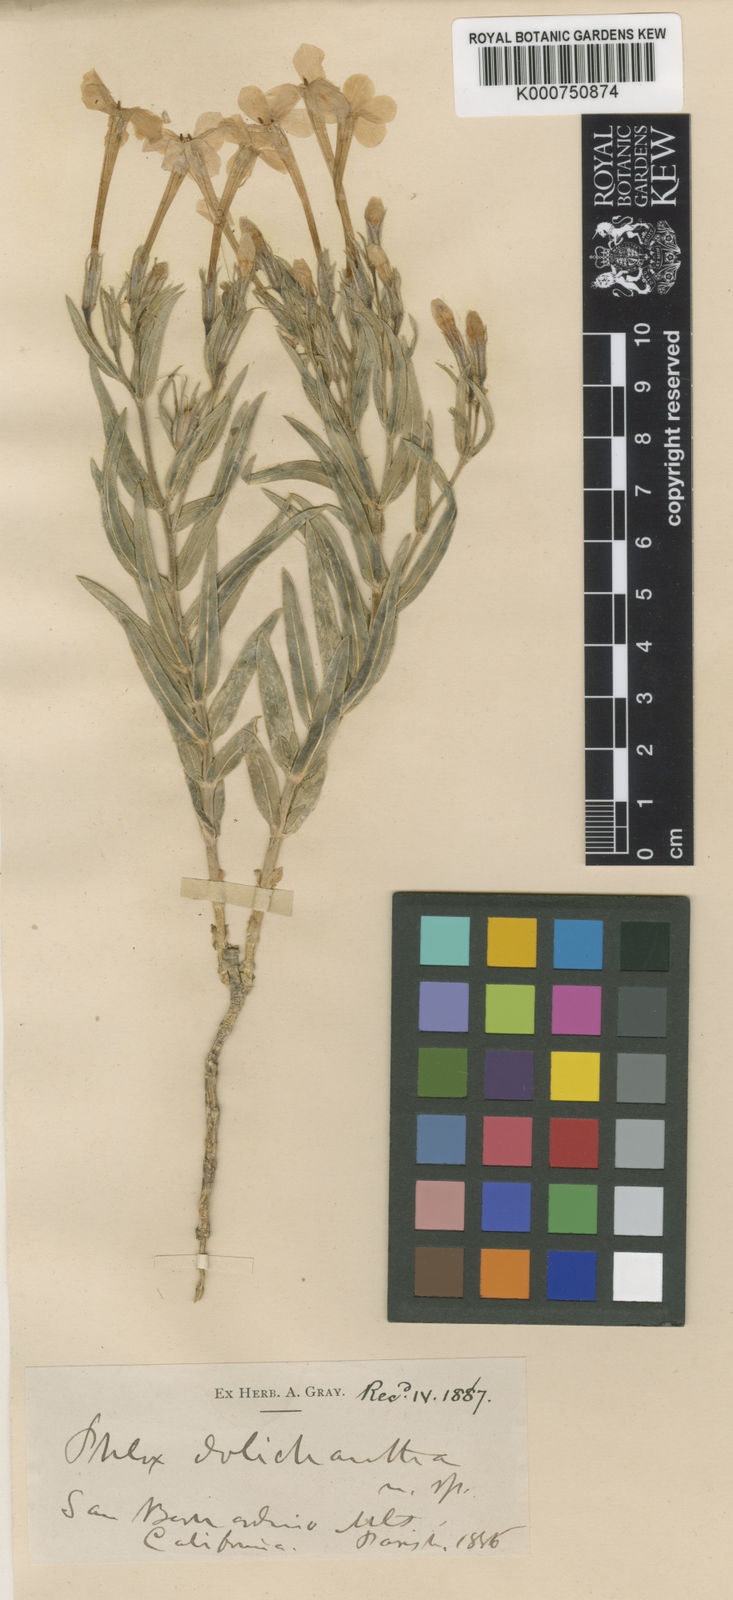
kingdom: Plantae
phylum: Tracheophyta
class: Magnoliopsida
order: Ericales
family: Polemoniaceae
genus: Phlox
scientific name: Phlox dolichantha
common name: Bear valley phlox
